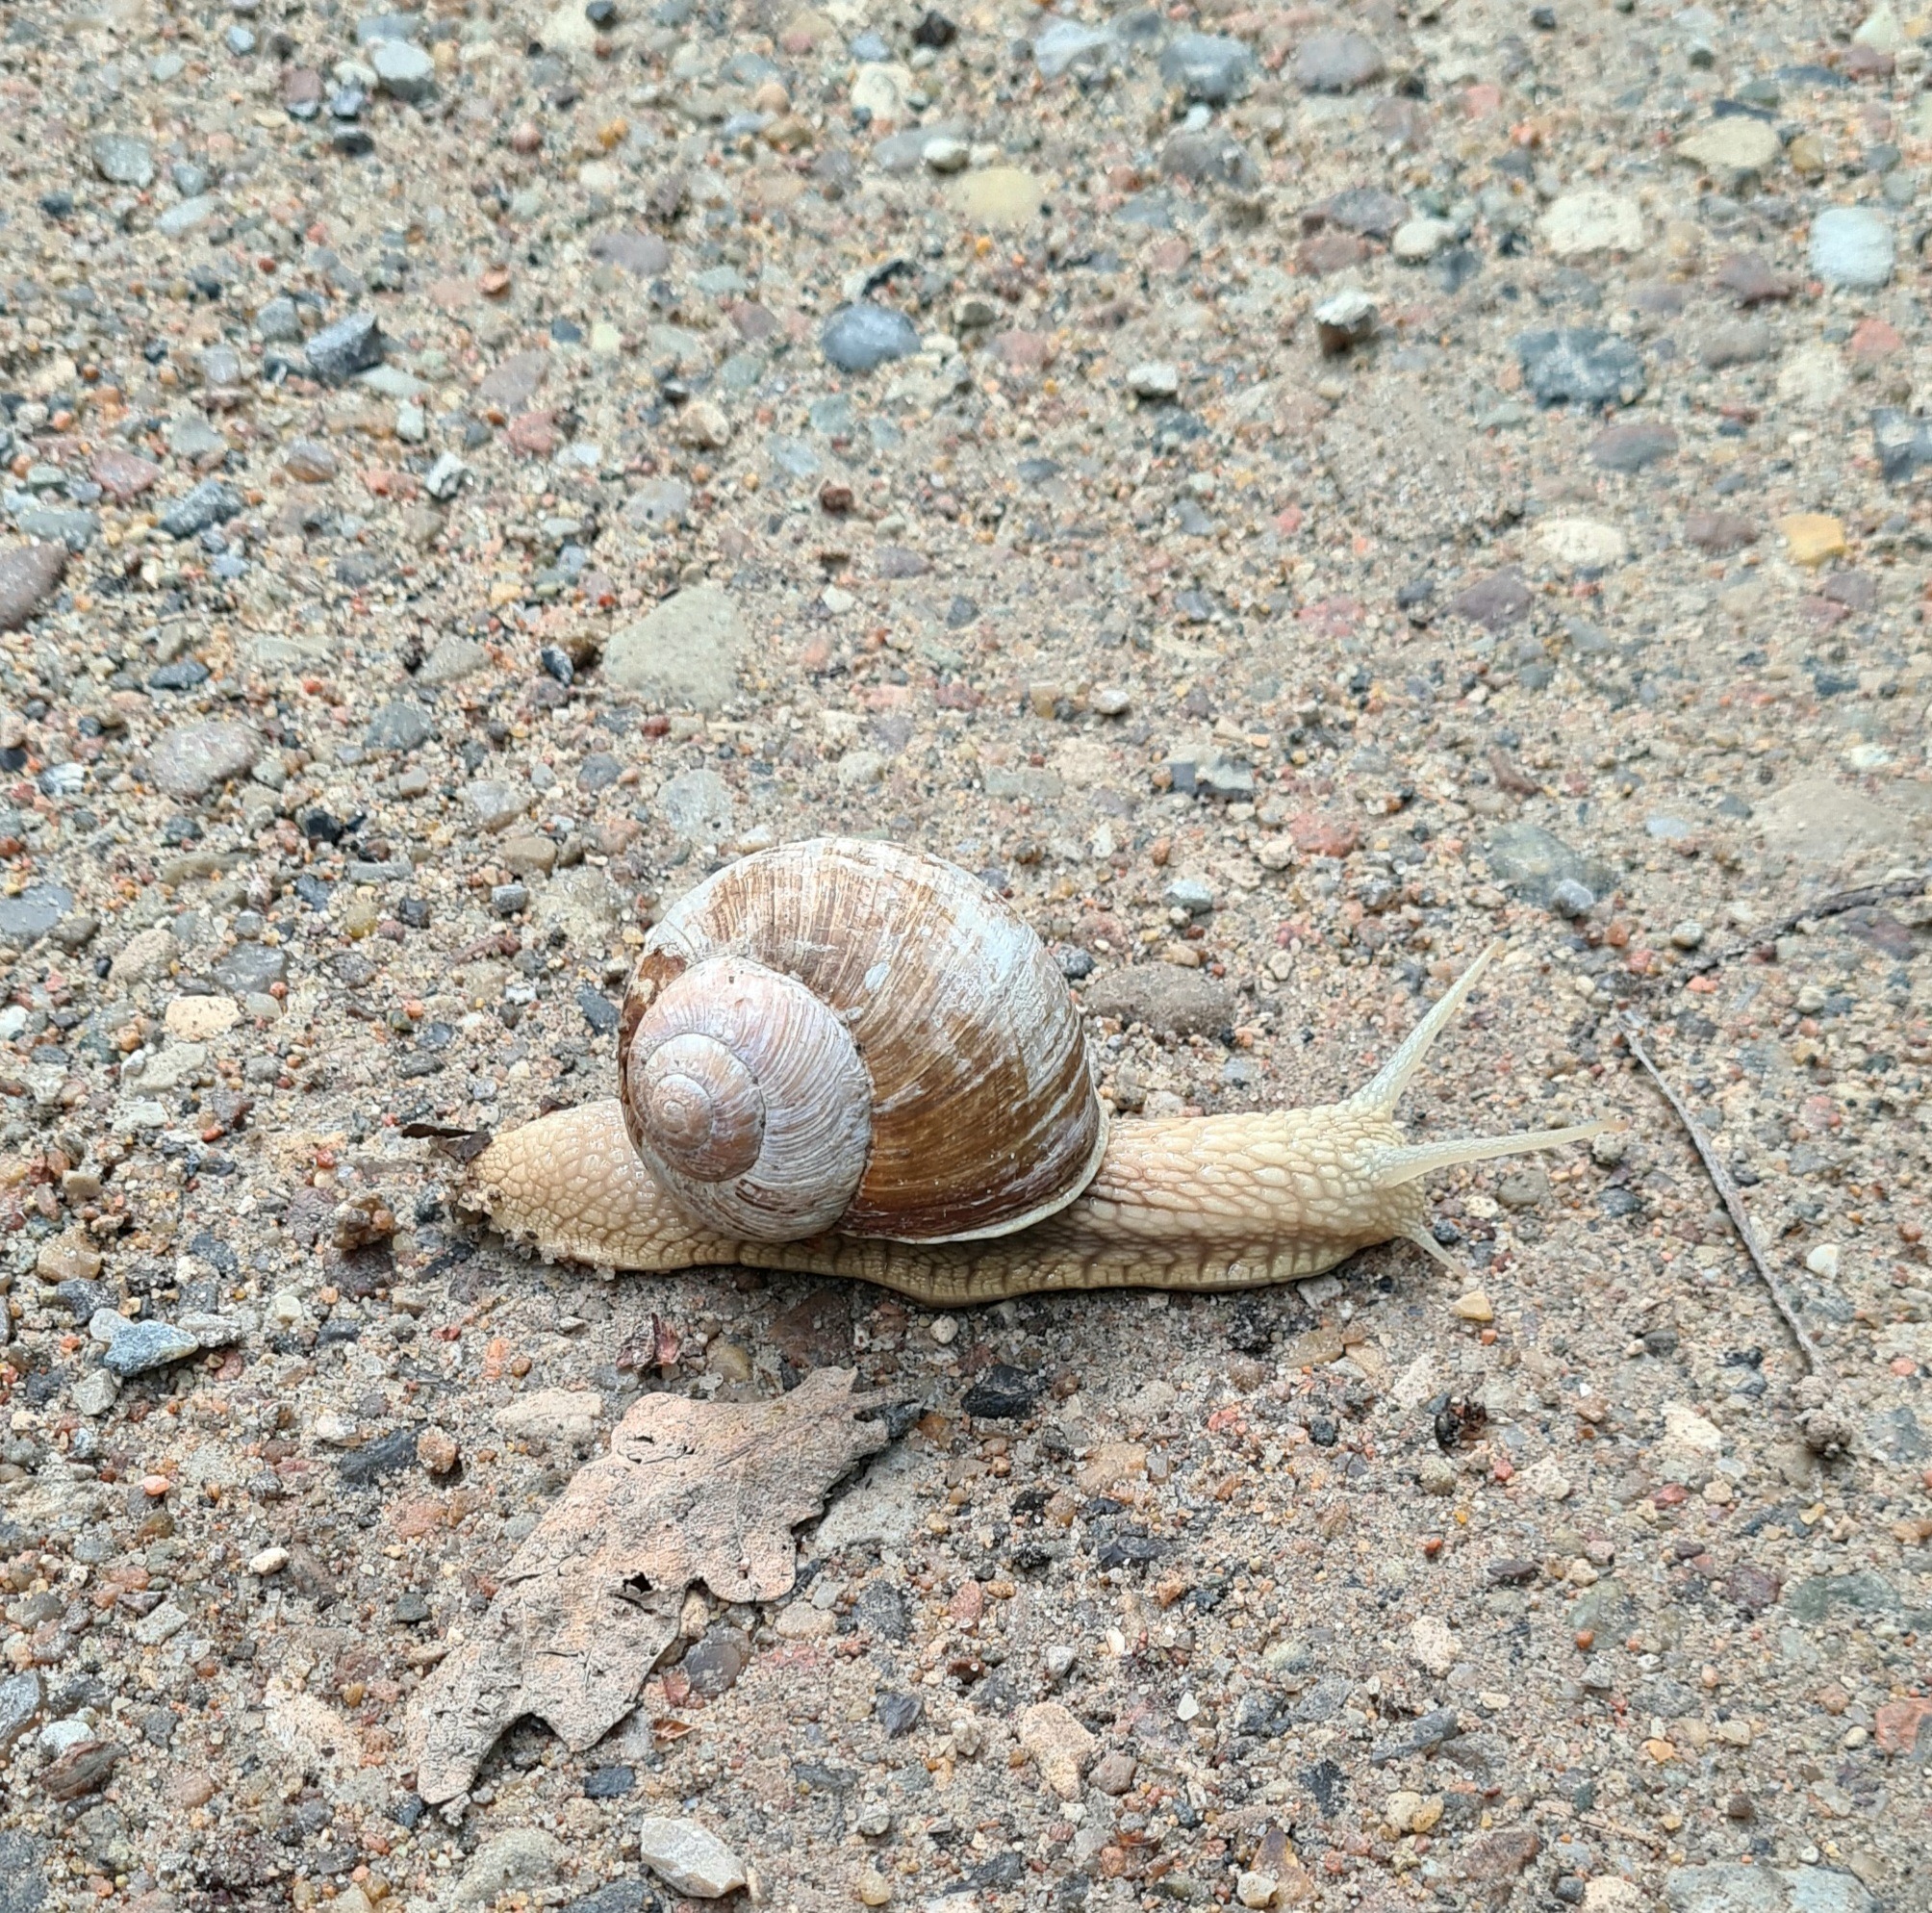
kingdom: Animalia
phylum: Mollusca
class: Gastropoda
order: Stylommatophora
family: Helicidae
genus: Helix
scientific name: Helix pomatia
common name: Vinbjergsnegl
